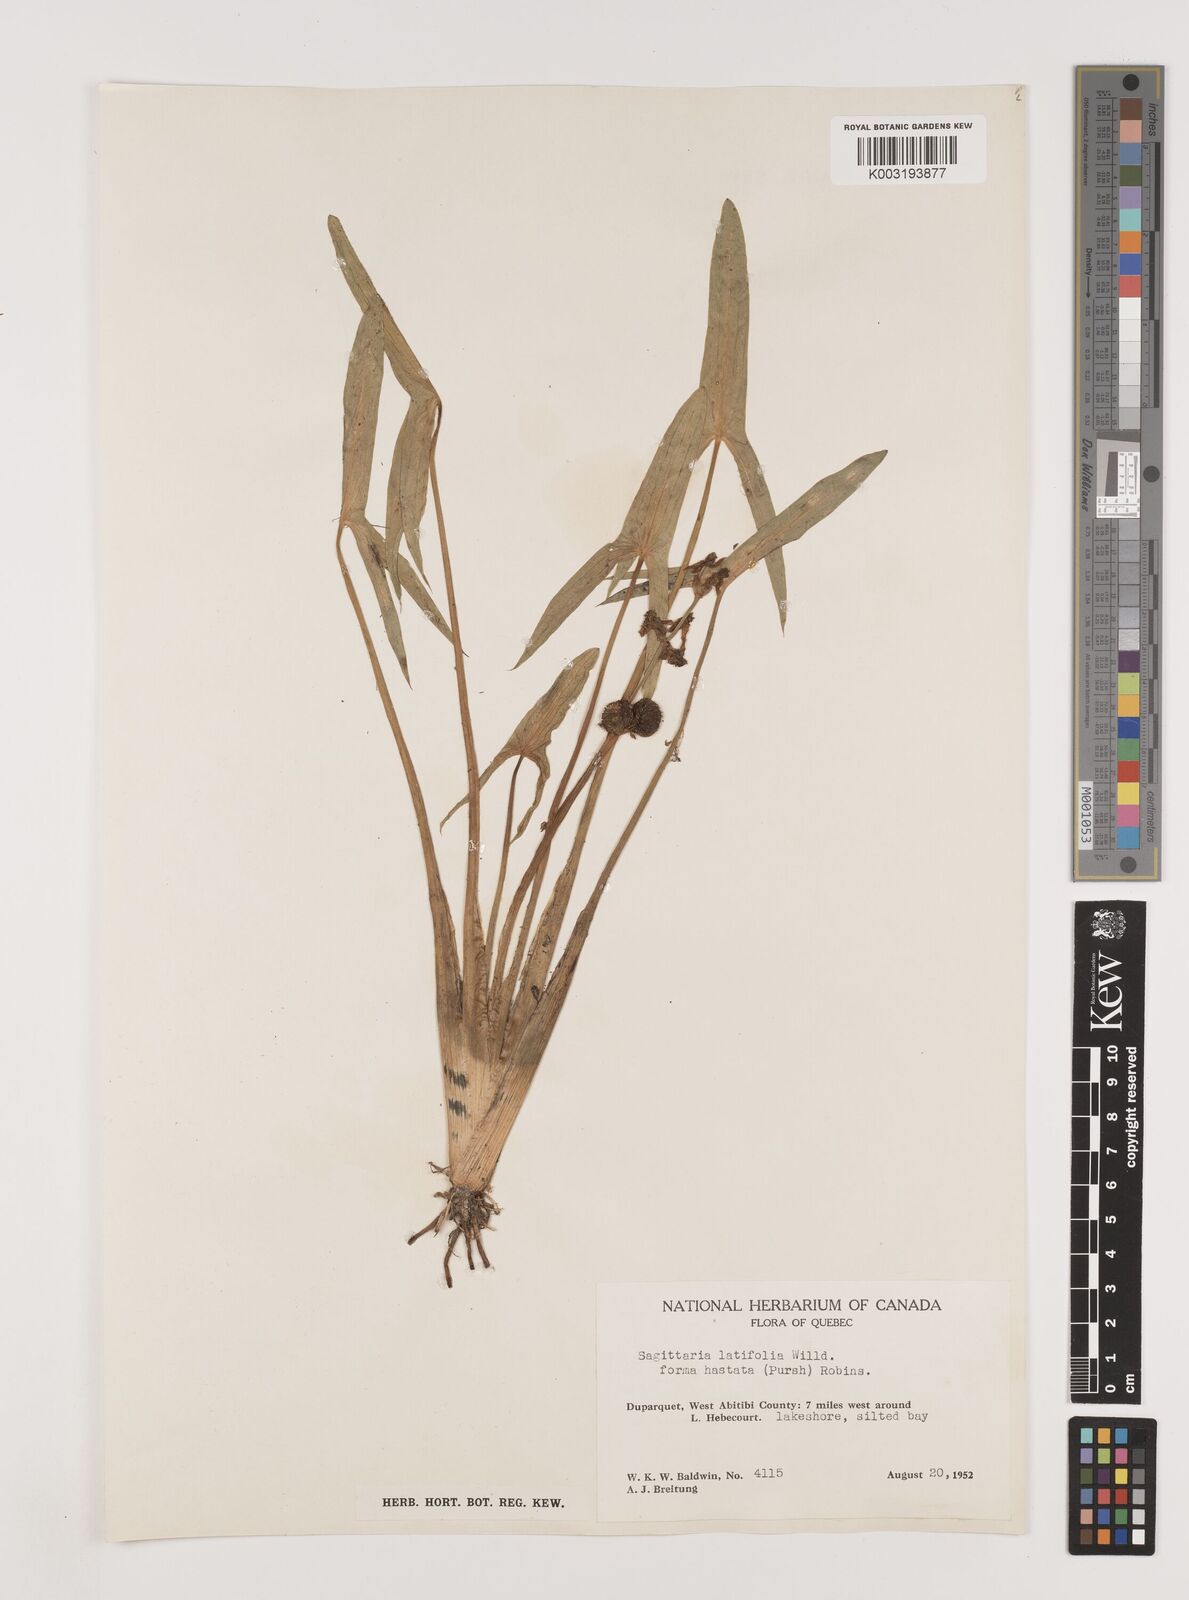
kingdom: Plantae
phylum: Tracheophyta
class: Liliopsida
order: Alismatales
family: Alismataceae
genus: Sagittaria
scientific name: Sagittaria latifolia
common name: Duck-potato
